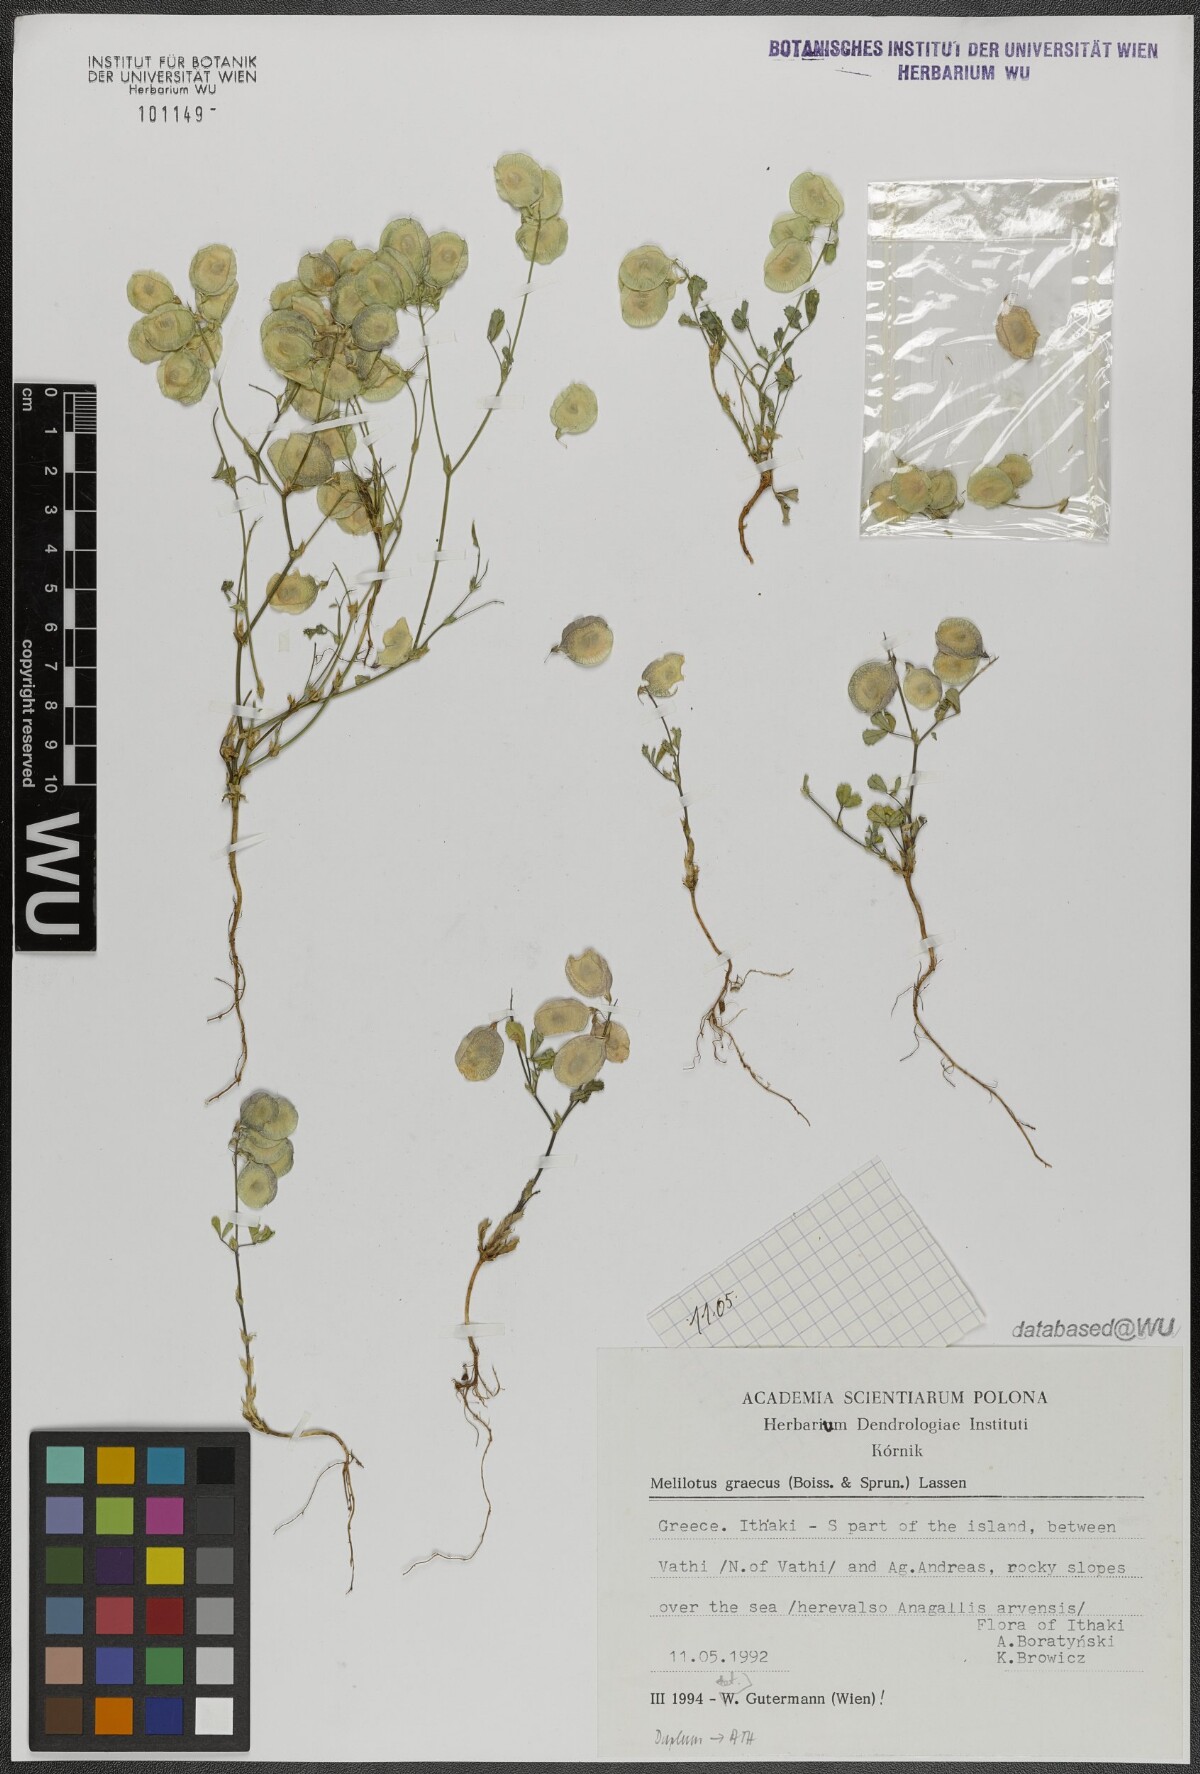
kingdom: Plantae
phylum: Tracheophyta
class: Magnoliopsida
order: Fabales
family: Fabaceae
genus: Trigonella
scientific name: Trigonella graeca
